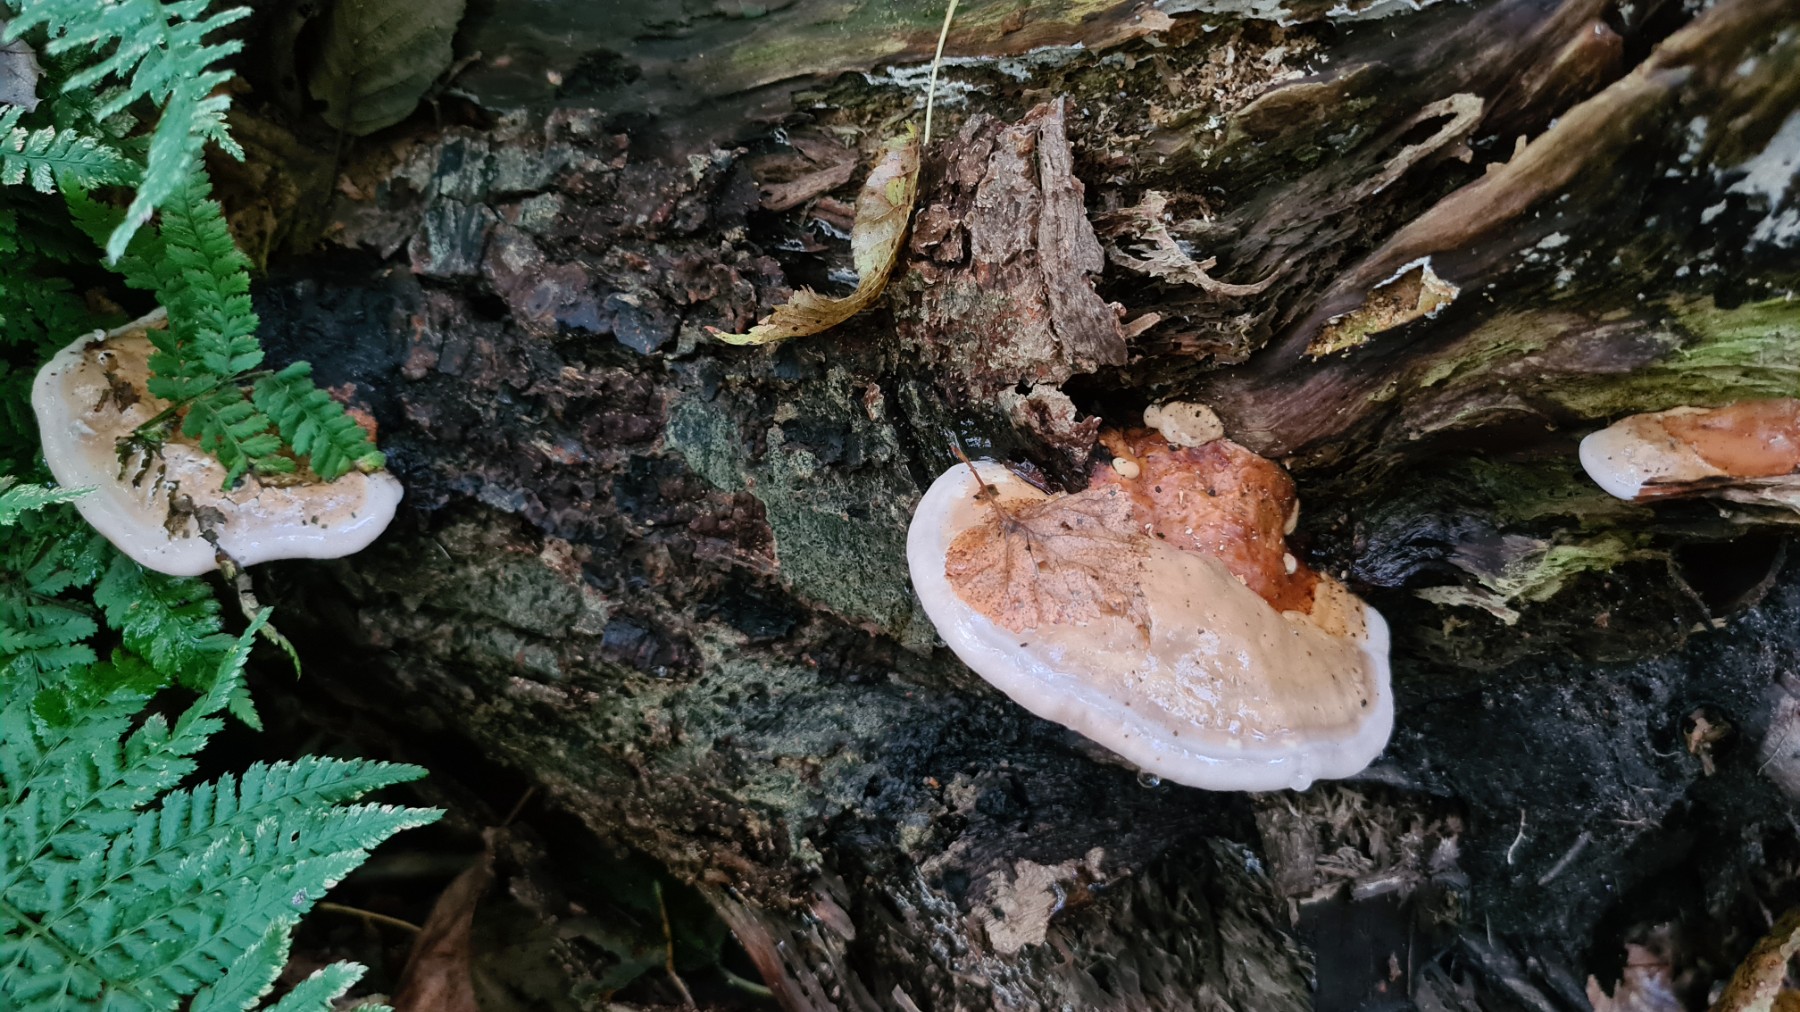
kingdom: Fungi
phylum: Basidiomycota
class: Agaricomycetes
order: Polyporales
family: Fomitopsidaceae
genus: Fomitopsis
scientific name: Fomitopsis pinicola
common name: randbæltet hovporesvamp
